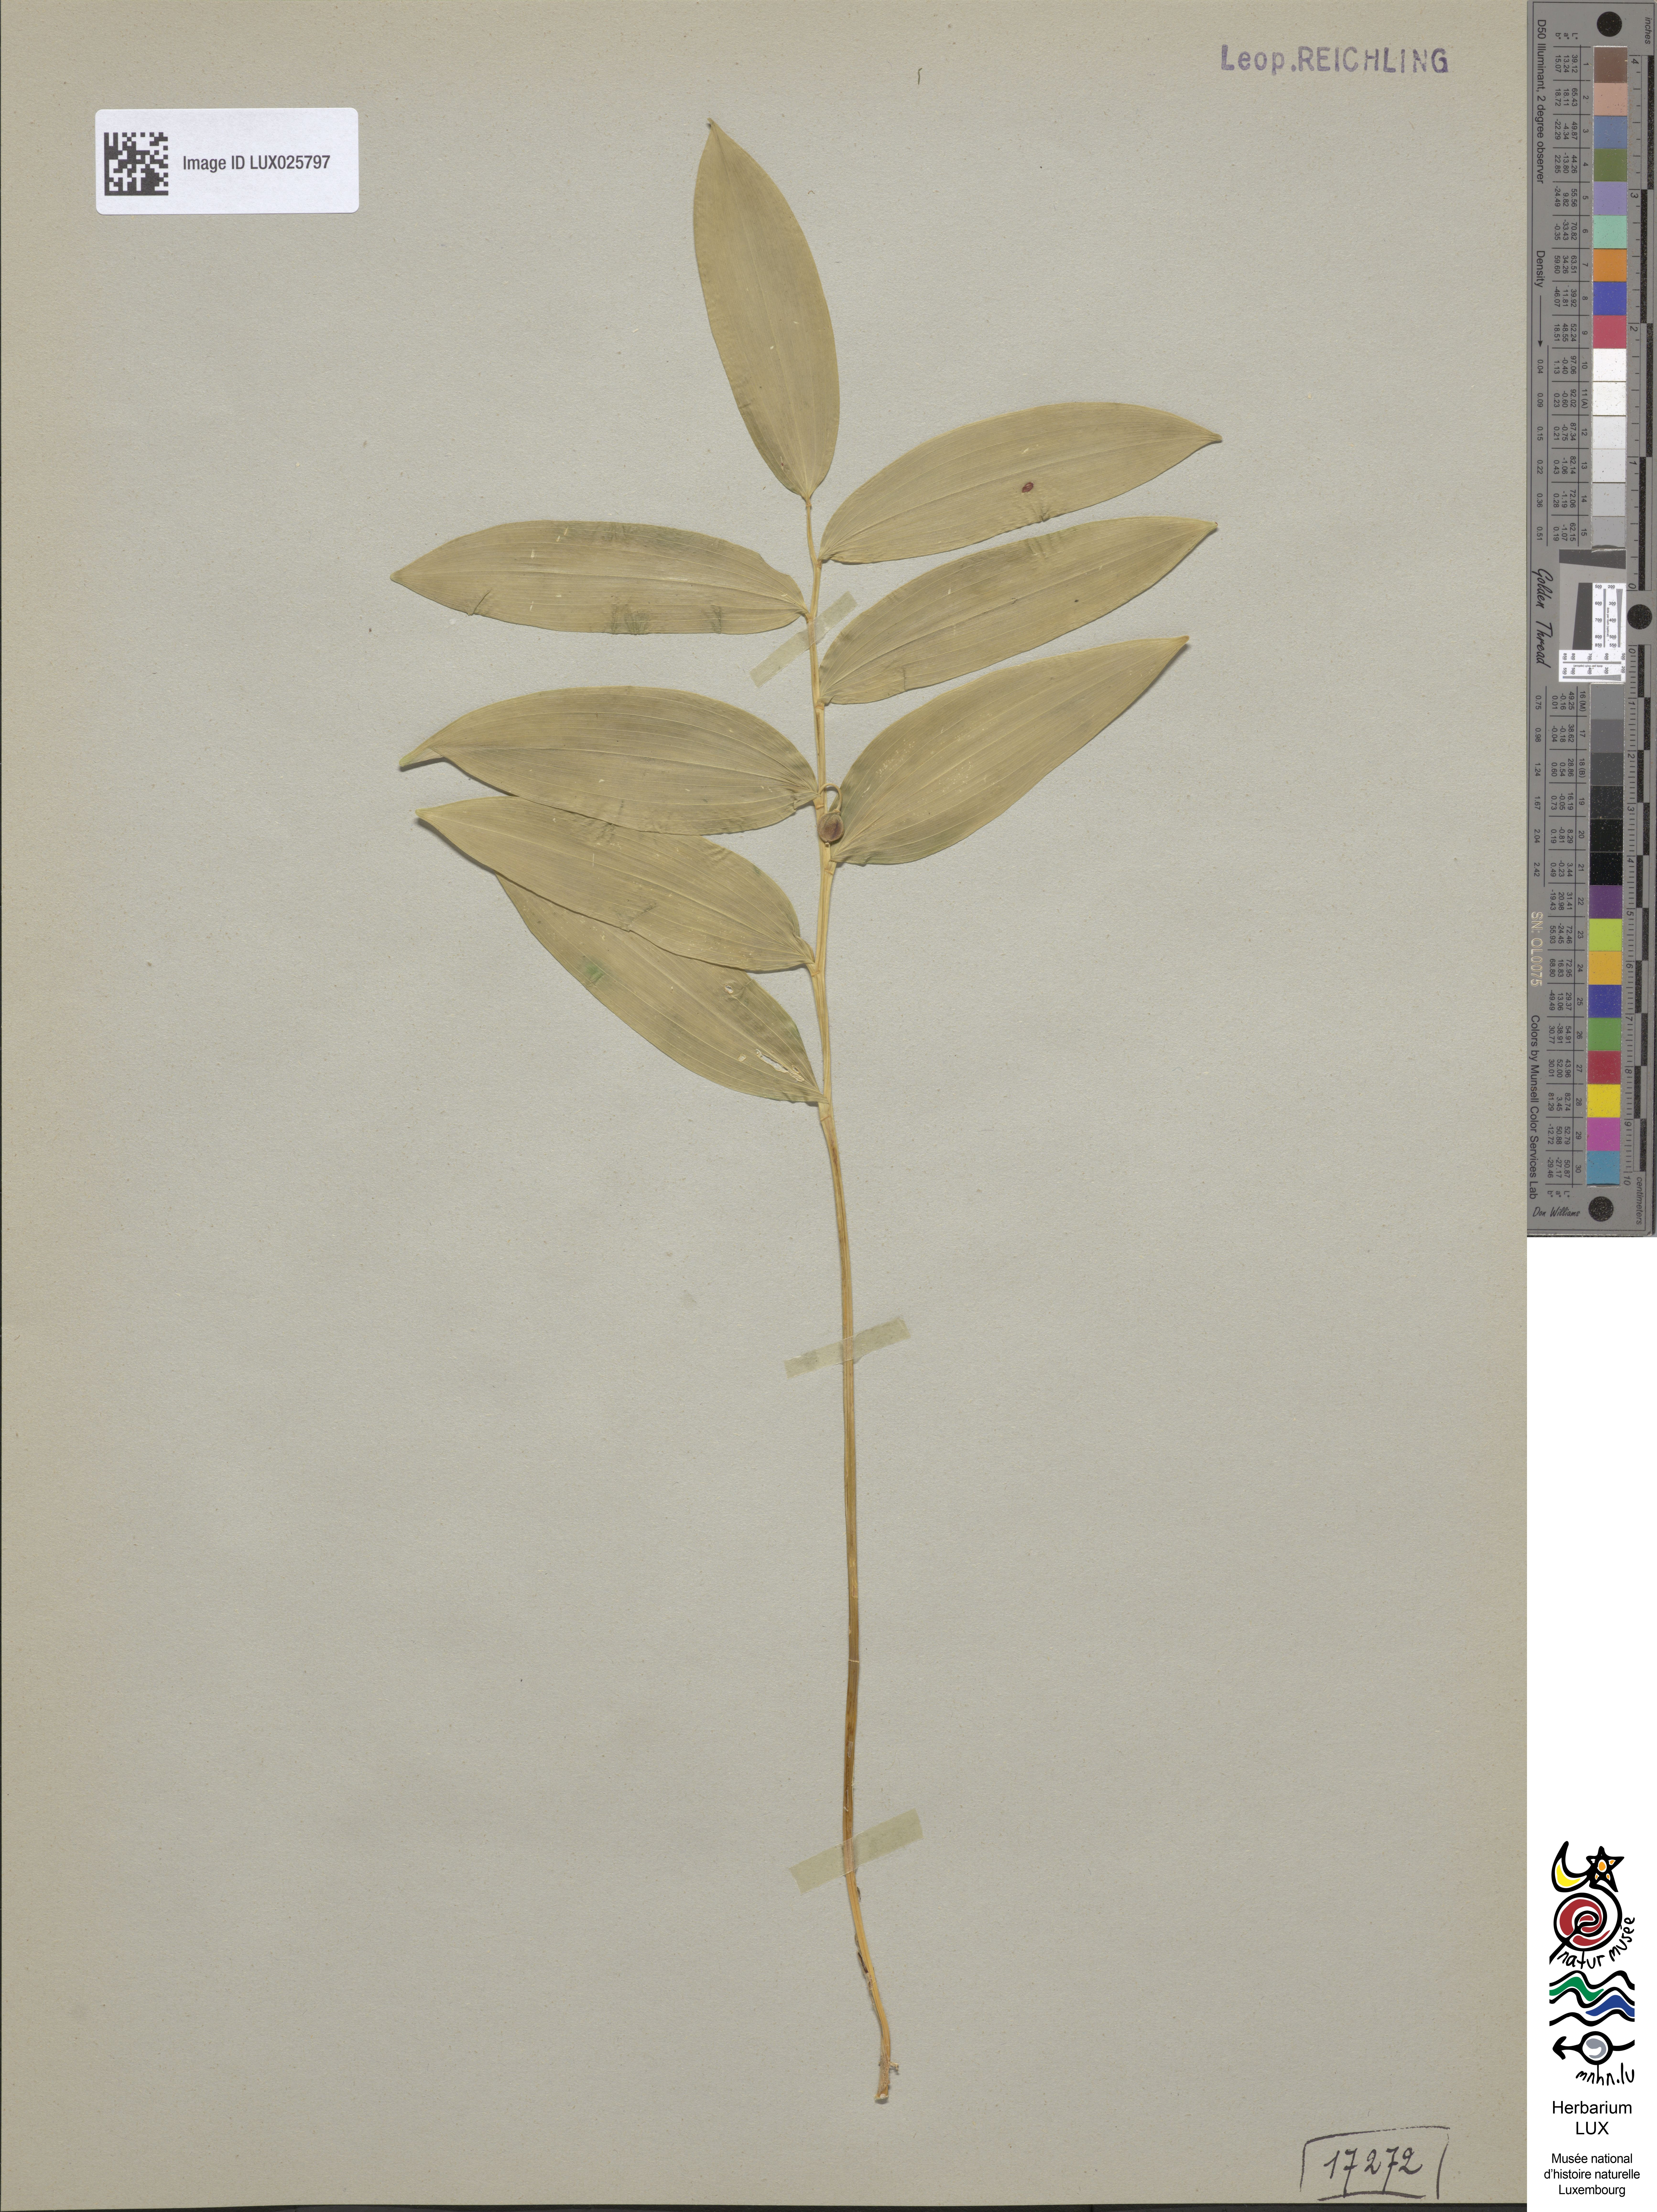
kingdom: Plantae
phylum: Tracheophyta
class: Liliopsida
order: Asparagales
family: Asparagaceae
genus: Polygonatum
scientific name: Polygonatum odoratum
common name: Angular solomon's-seal
